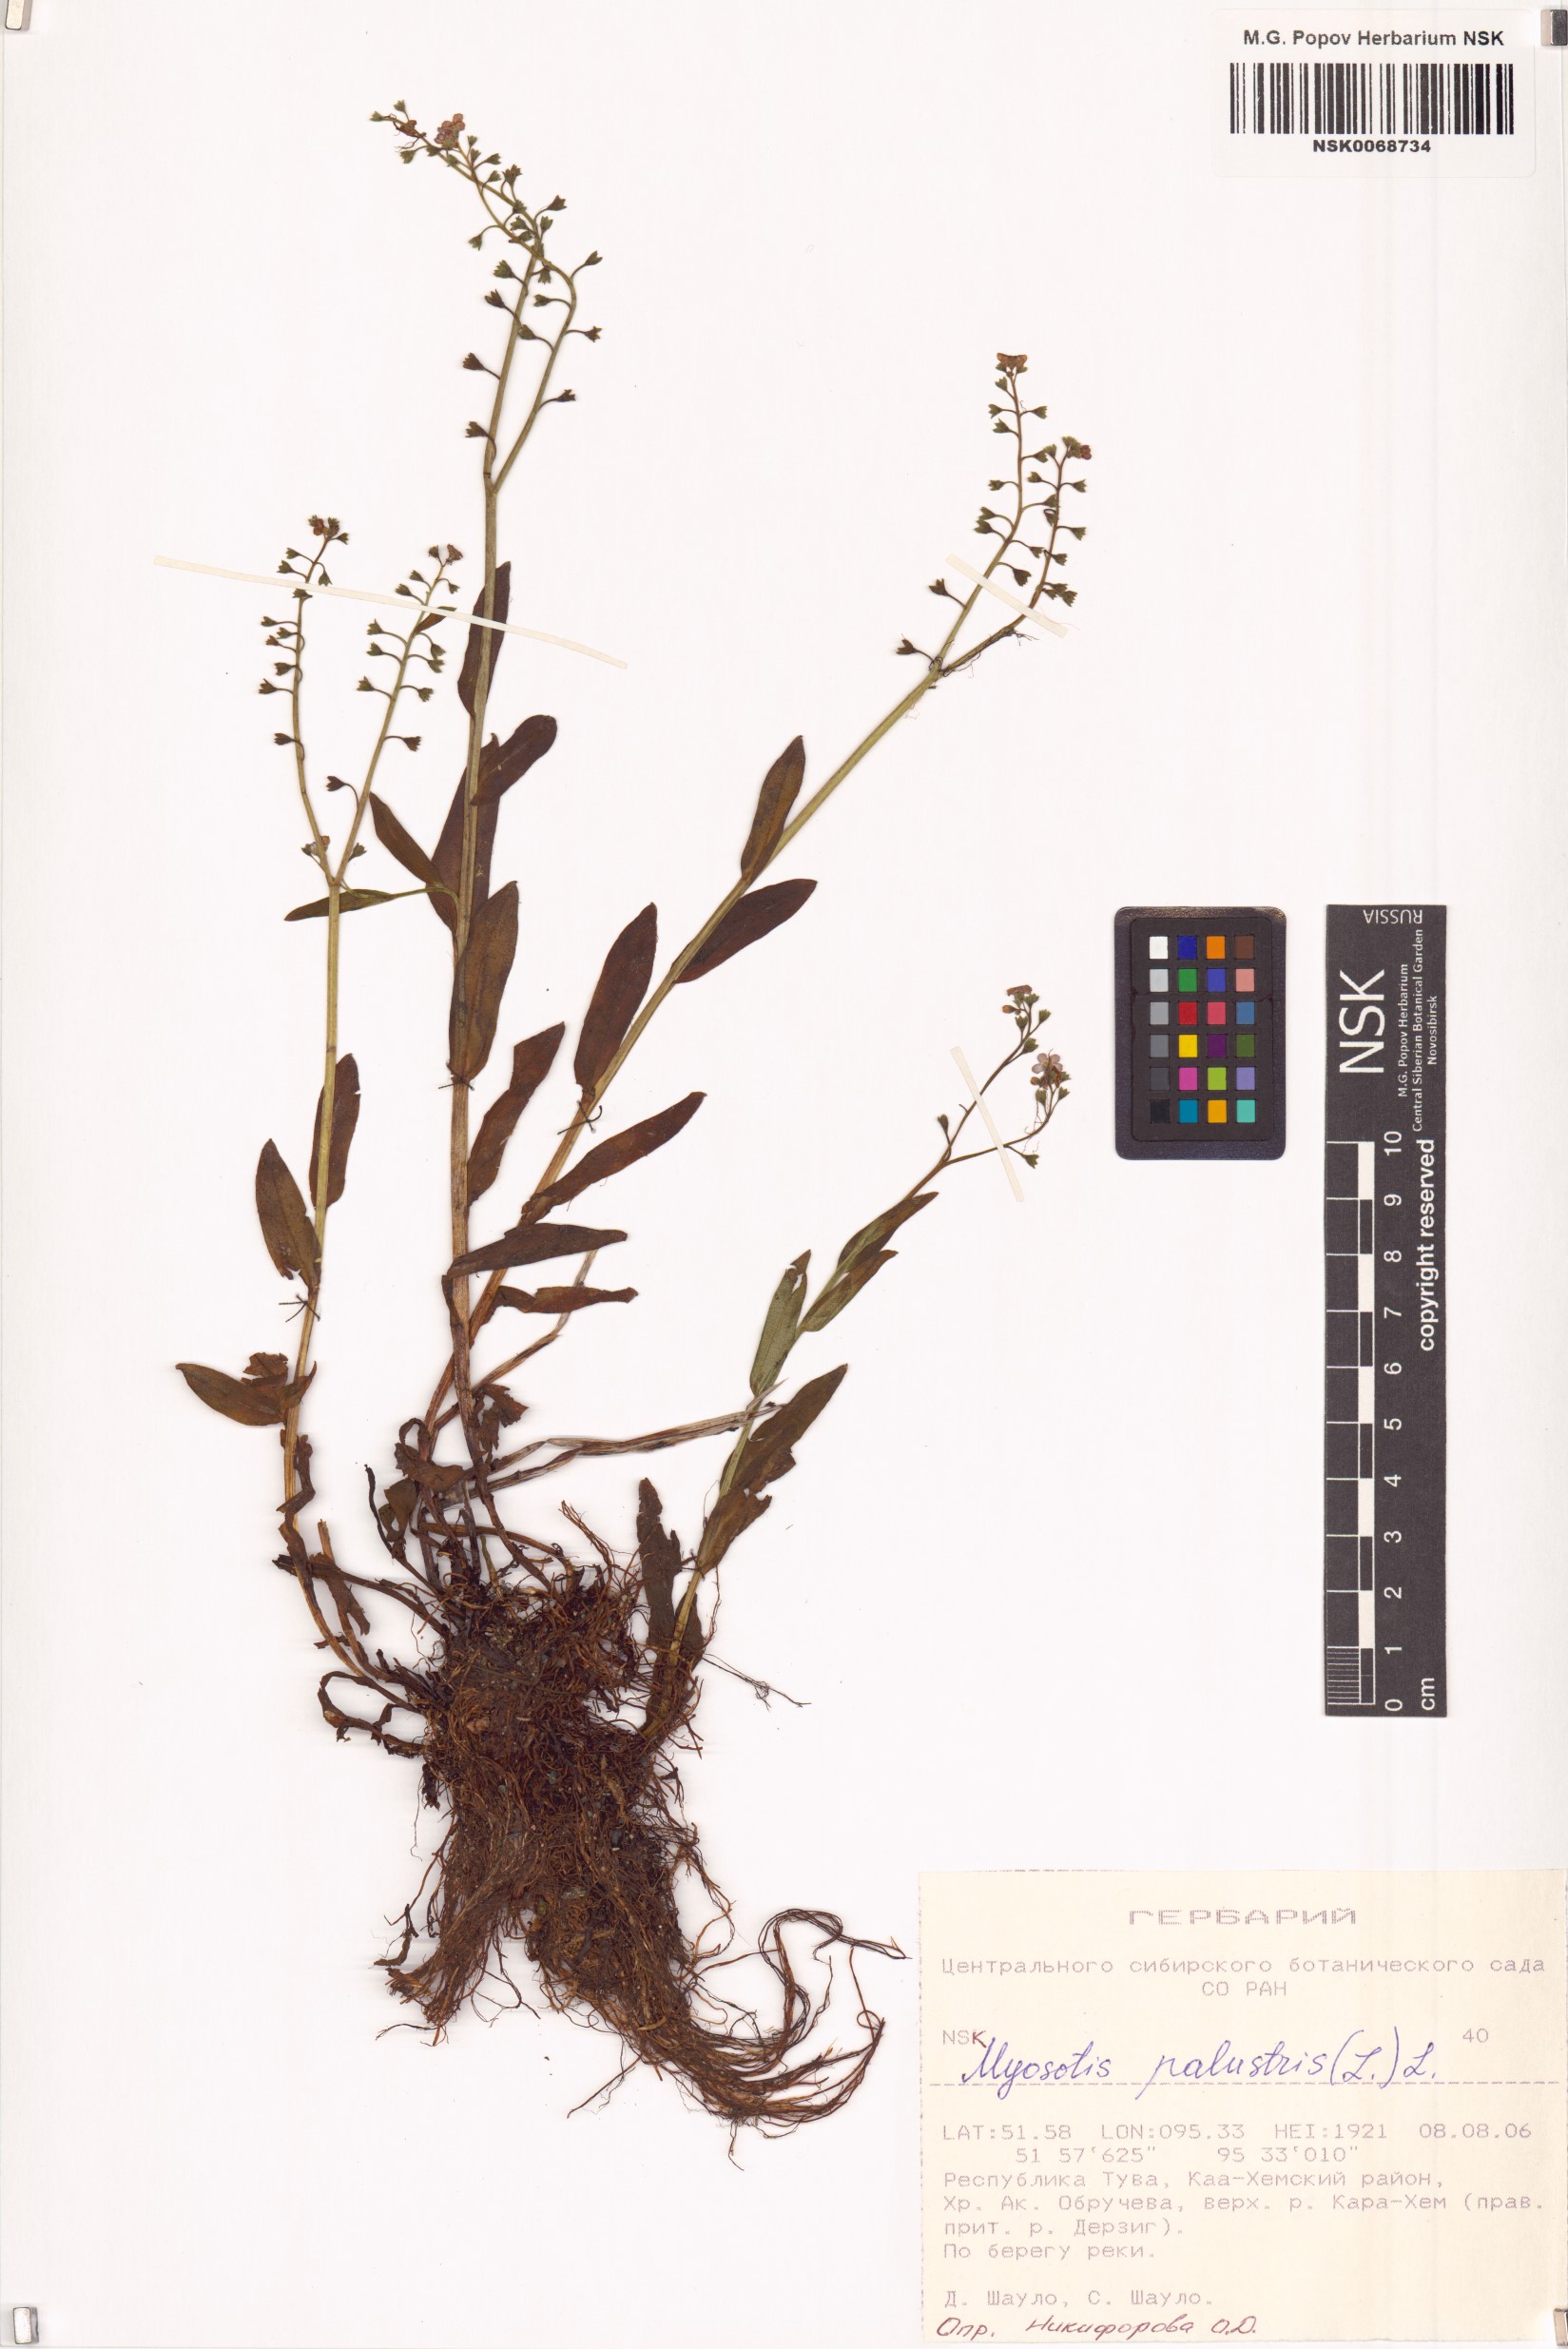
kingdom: Plantae
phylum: Tracheophyta
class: Magnoliopsida
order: Boraginales
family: Boraginaceae
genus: Myosotis
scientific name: Myosotis scorpioides
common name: Water forget-me-not
